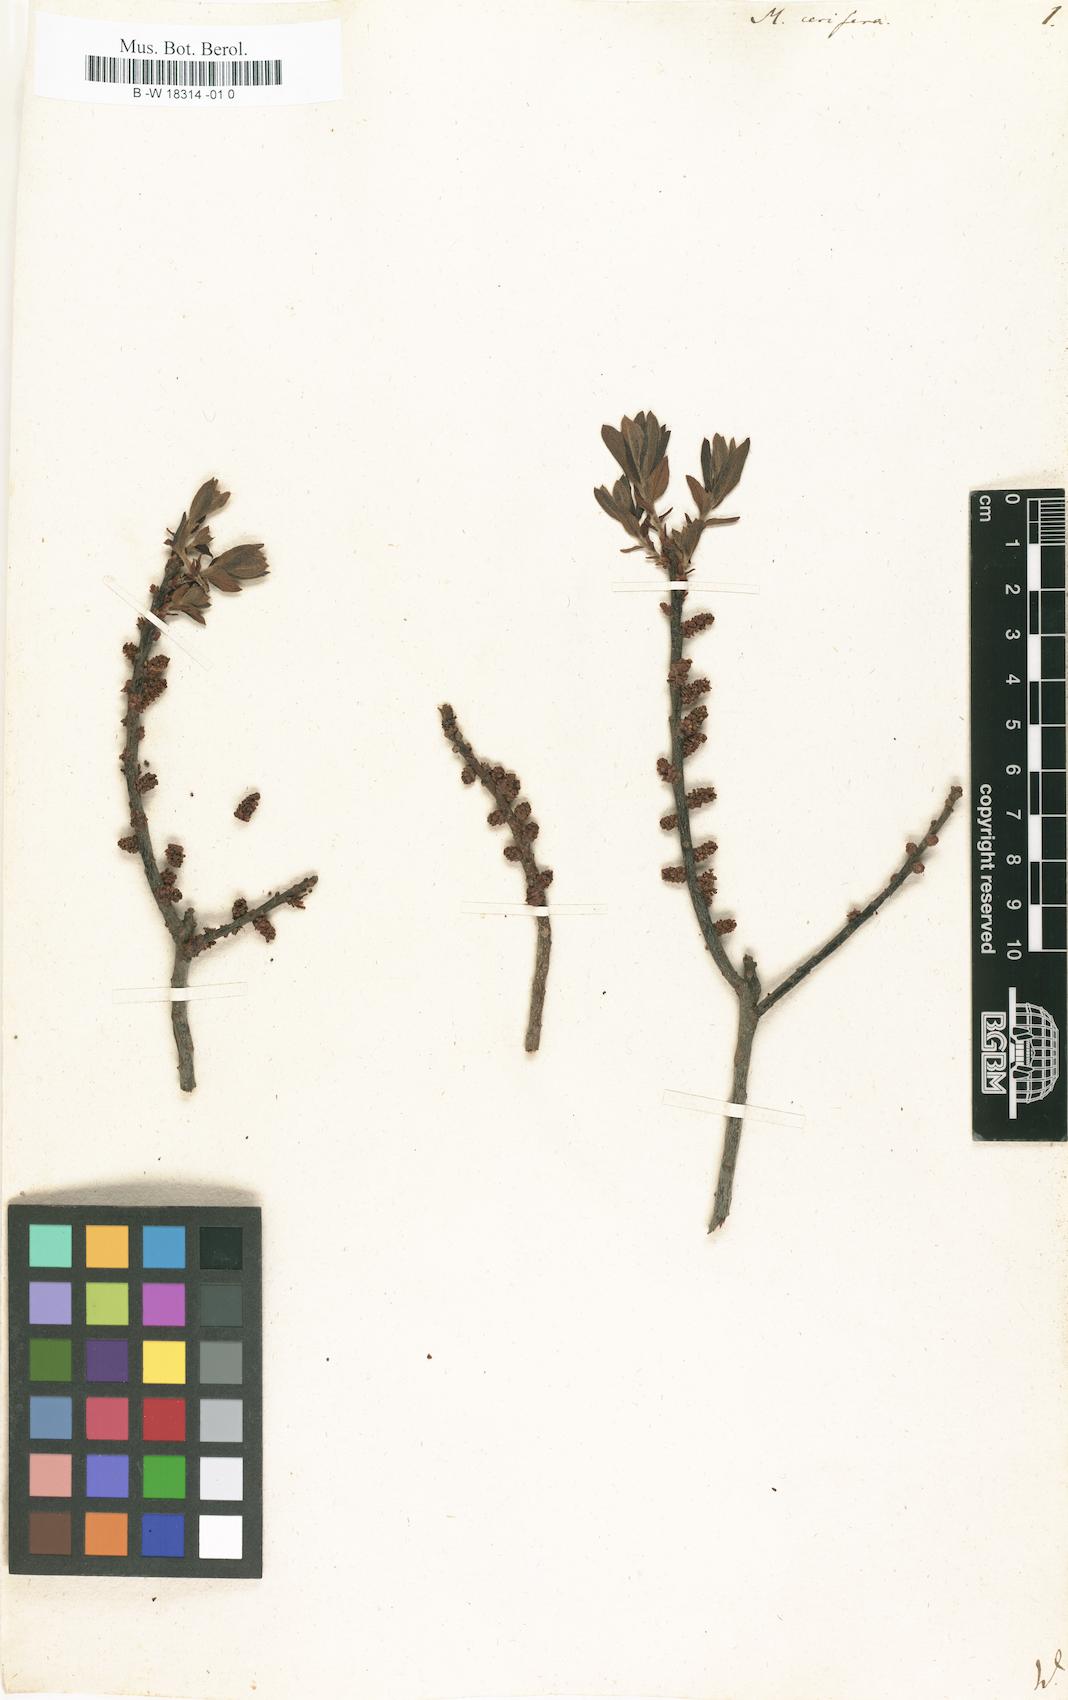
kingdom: Plantae
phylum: Tracheophyta
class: Magnoliopsida
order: Fagales
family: Myricaceae
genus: Morella
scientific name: Morella cerifera
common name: Wax myrtle
